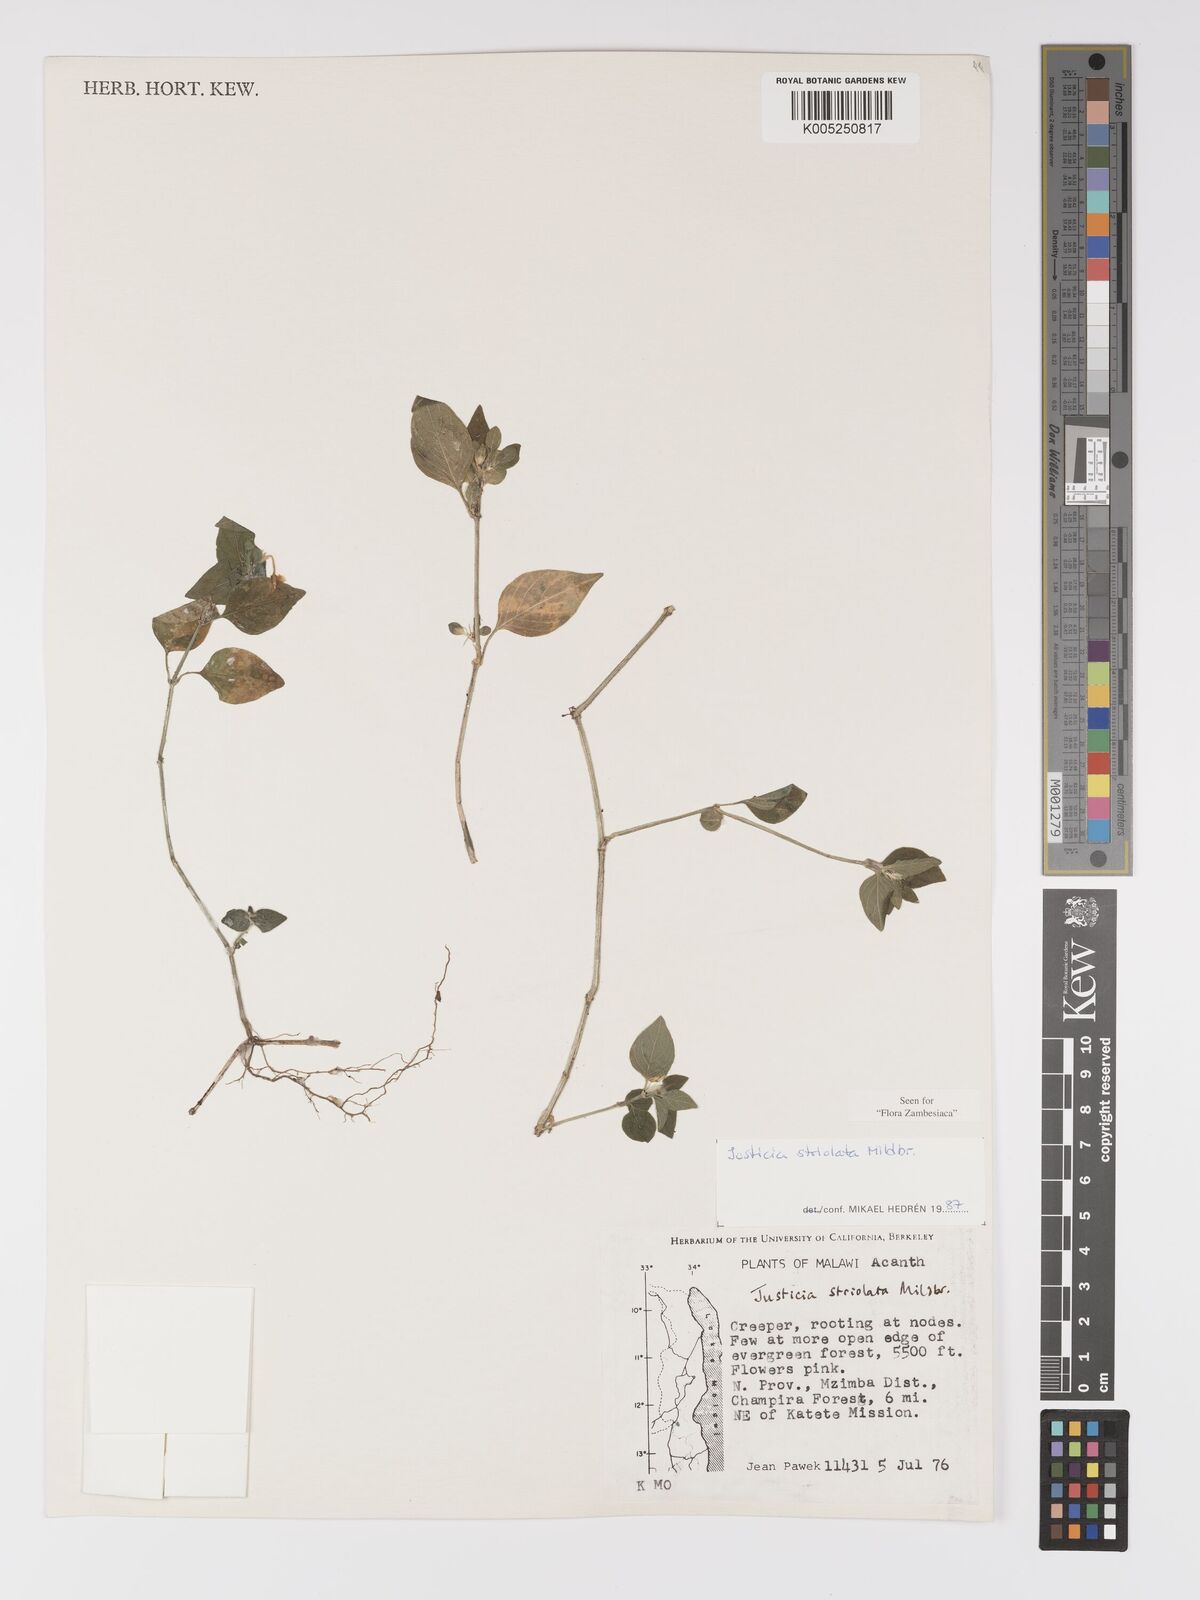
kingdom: Plantae
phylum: Tracheophyta
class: Magnoliopsida
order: Lamiales
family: Acanthaceae
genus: Justicia
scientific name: Justicia striolata
